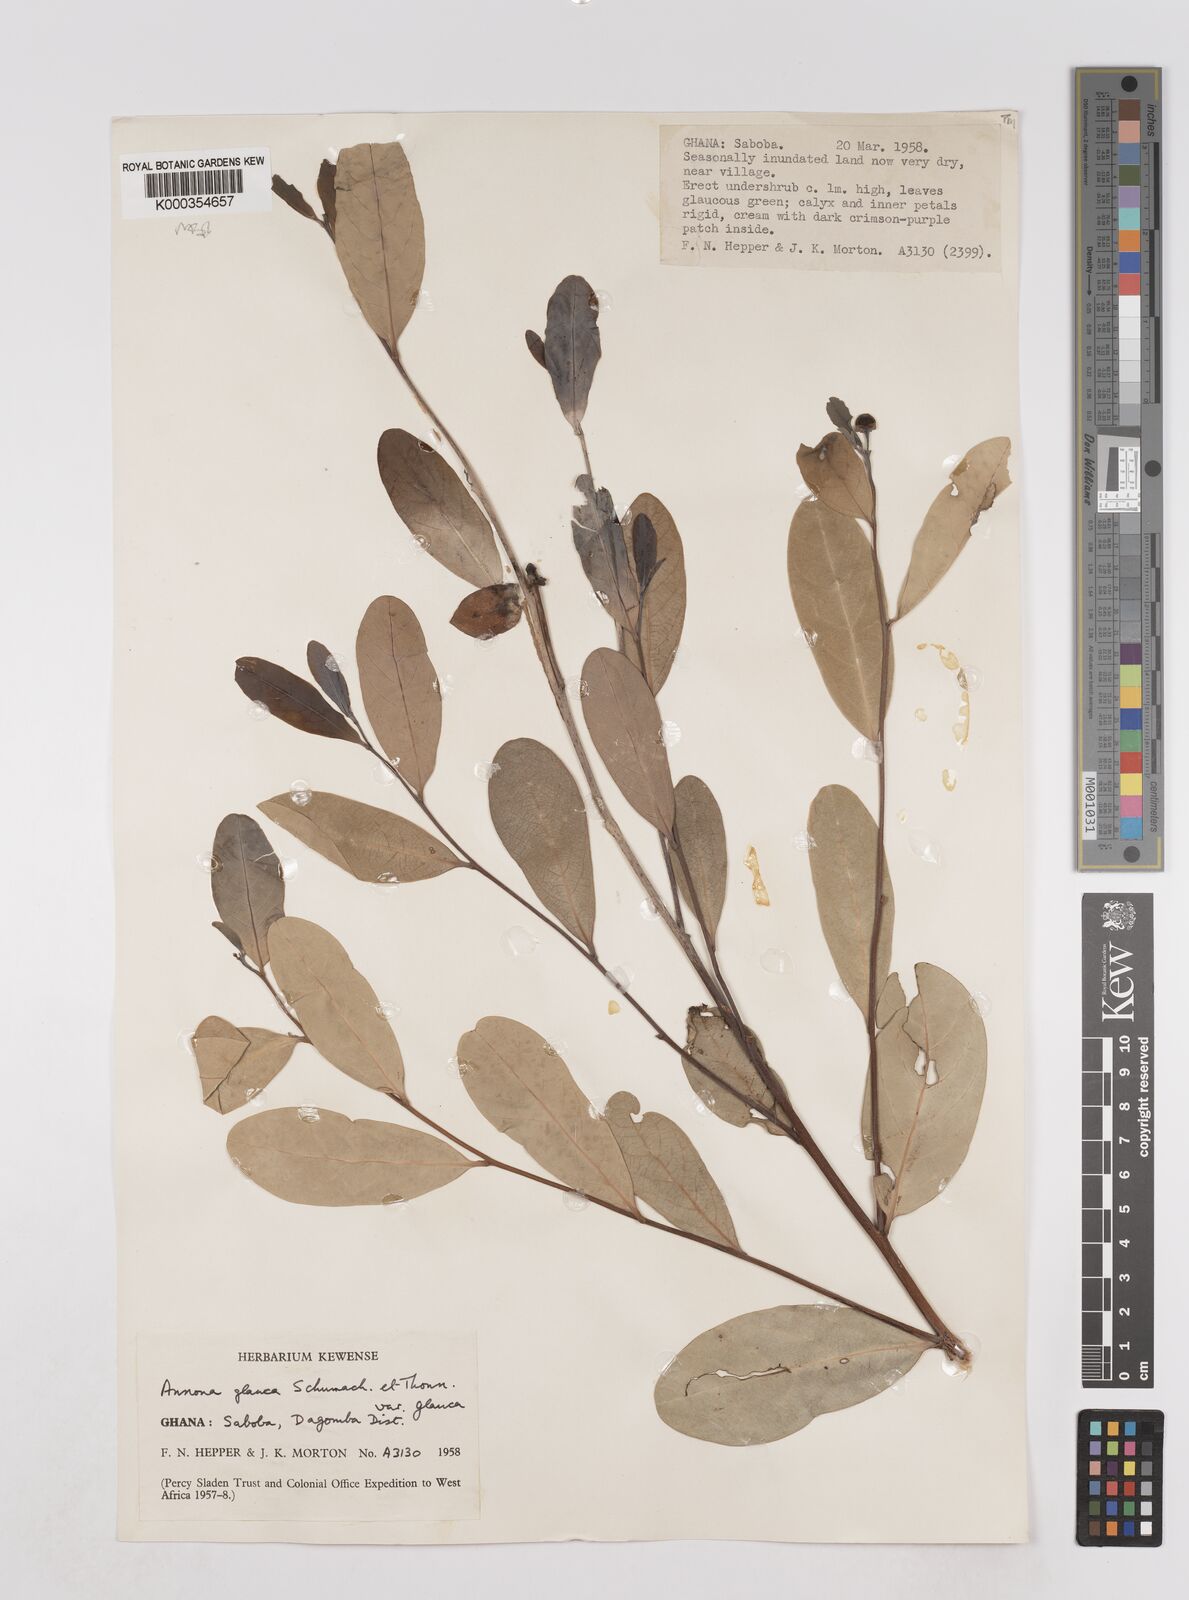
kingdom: Plantae
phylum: Tracheophyta
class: Magnoliopsida
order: Magnoliales
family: Annonaceae
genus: Annona
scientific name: Annona glauca
